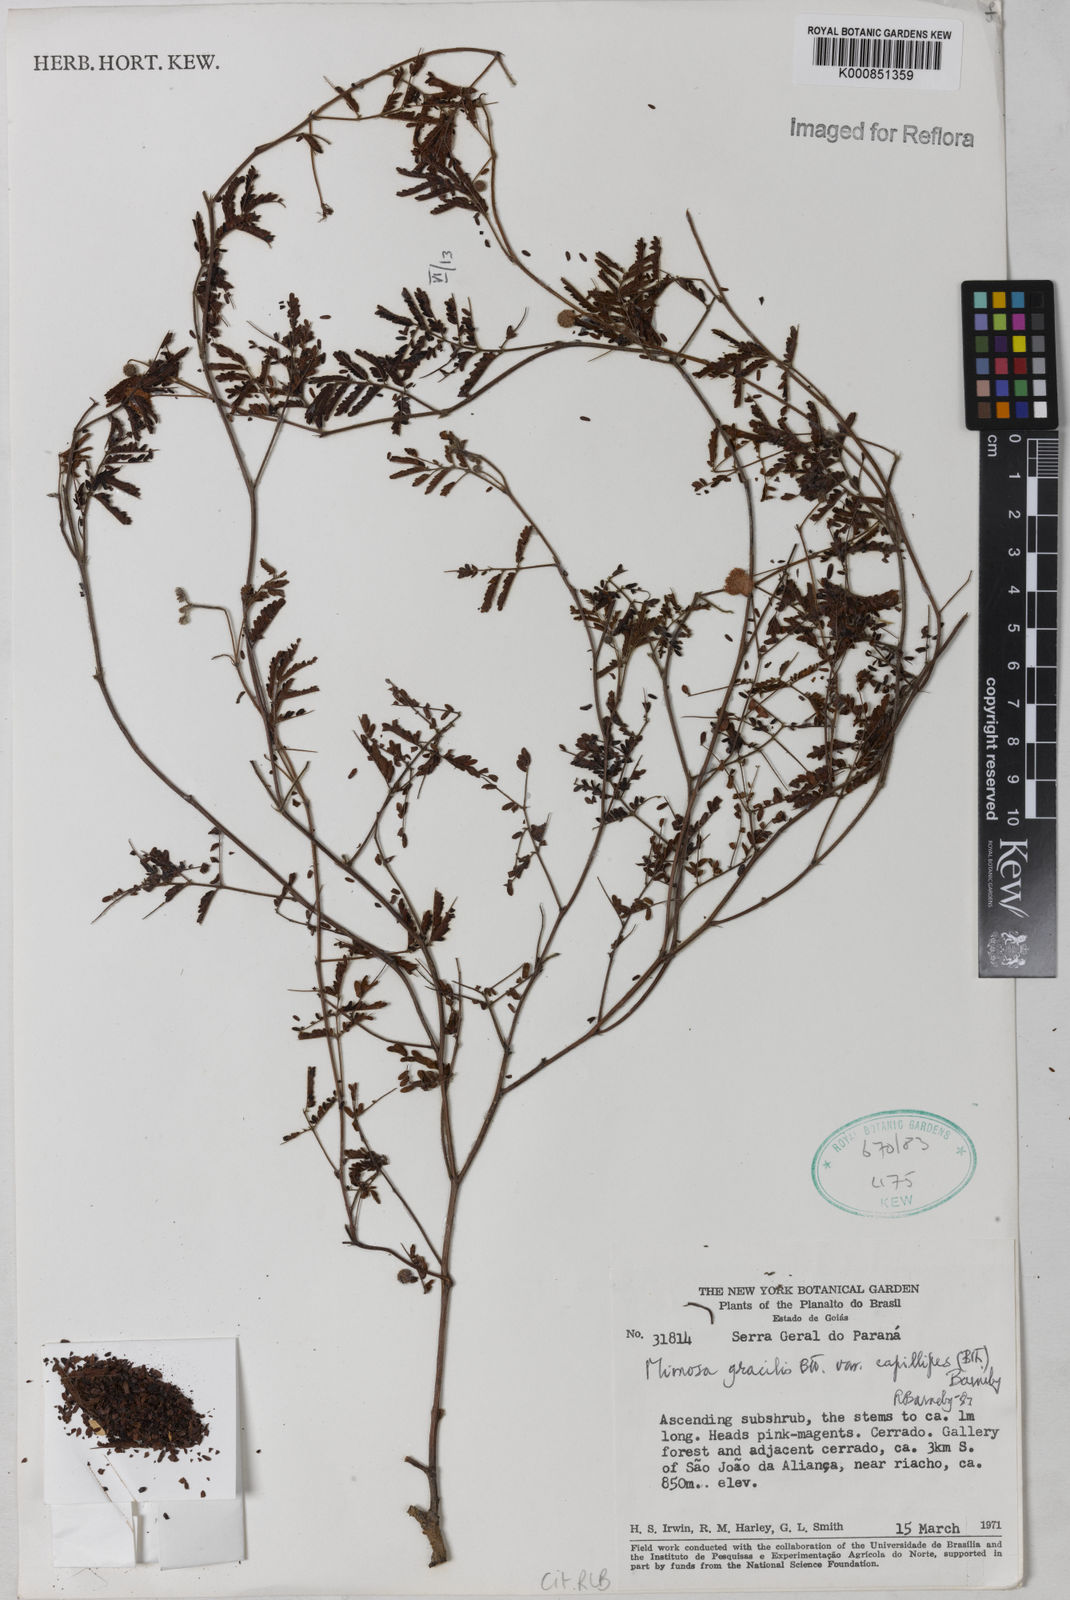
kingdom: Plantae
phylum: Tracheophyta
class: Magnoliopsida
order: Fabales
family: Fabaceae
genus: Mimosa
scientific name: Mimosa gracilis
